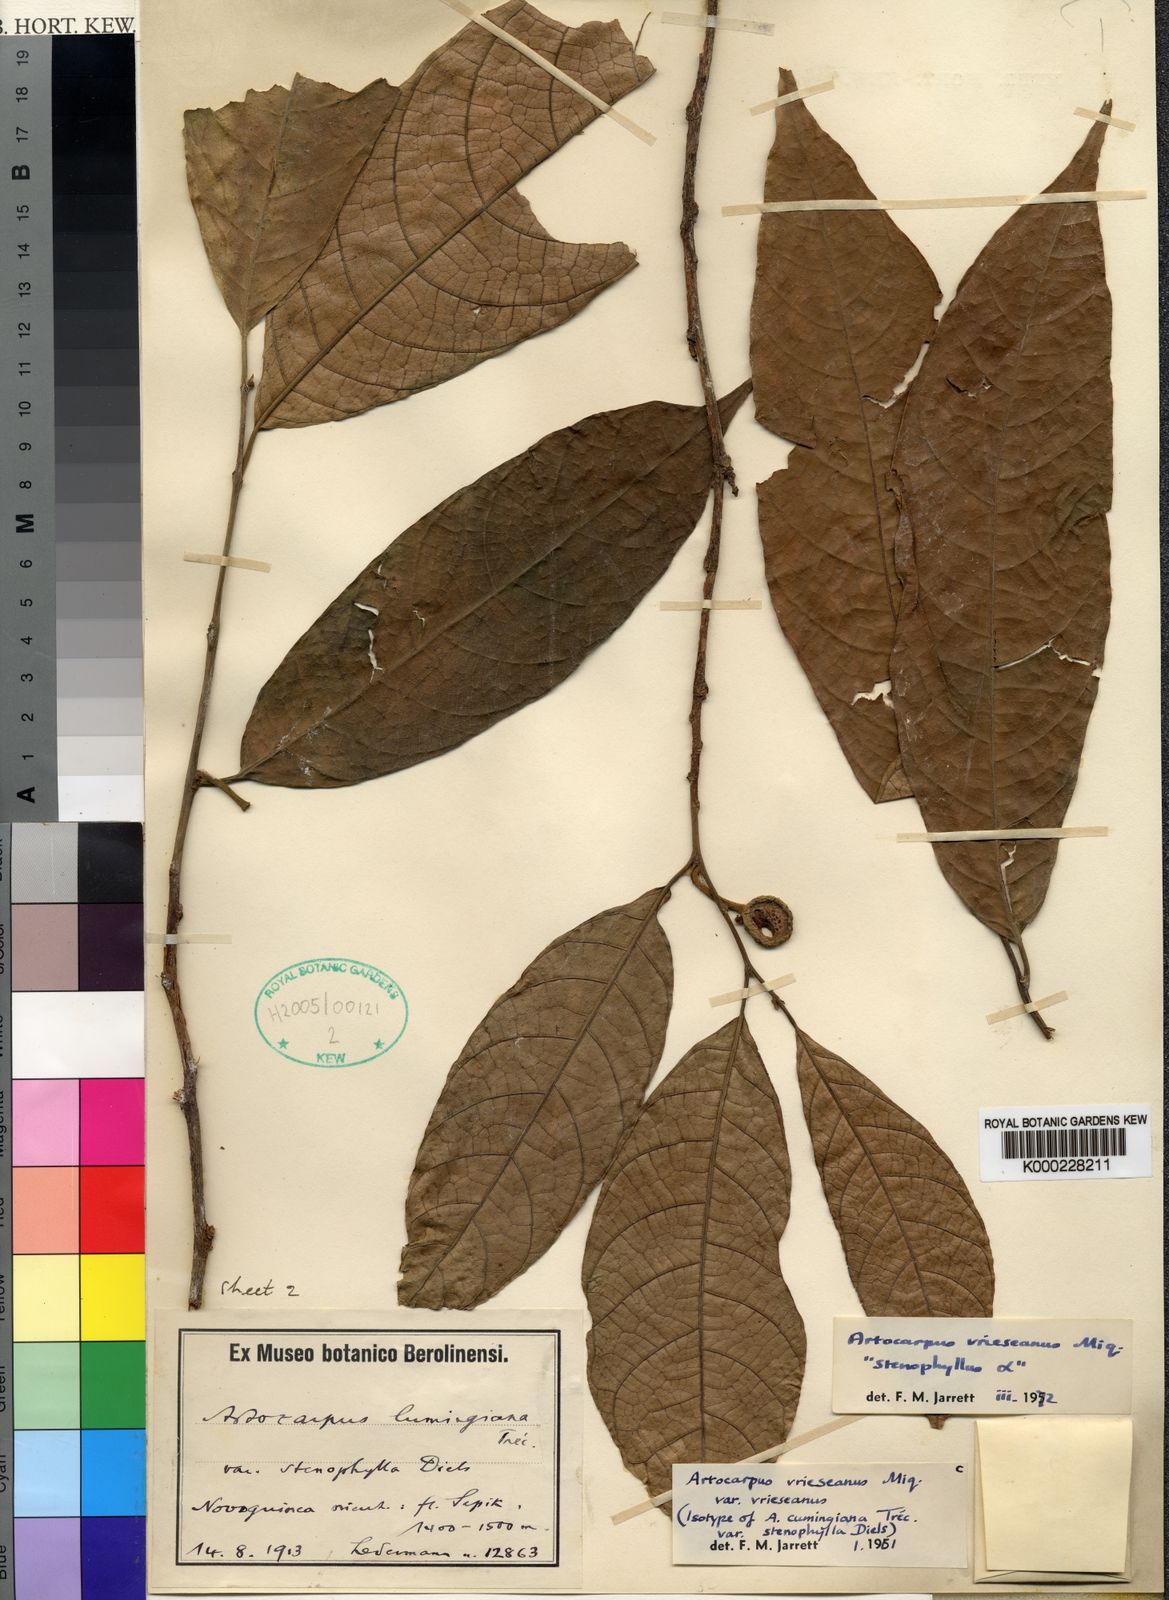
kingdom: Plantae
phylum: Tracheophyta
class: Magnoliopsida
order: Rosales
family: Moraceae
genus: Artocarpus
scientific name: Artocarpus lacucha
